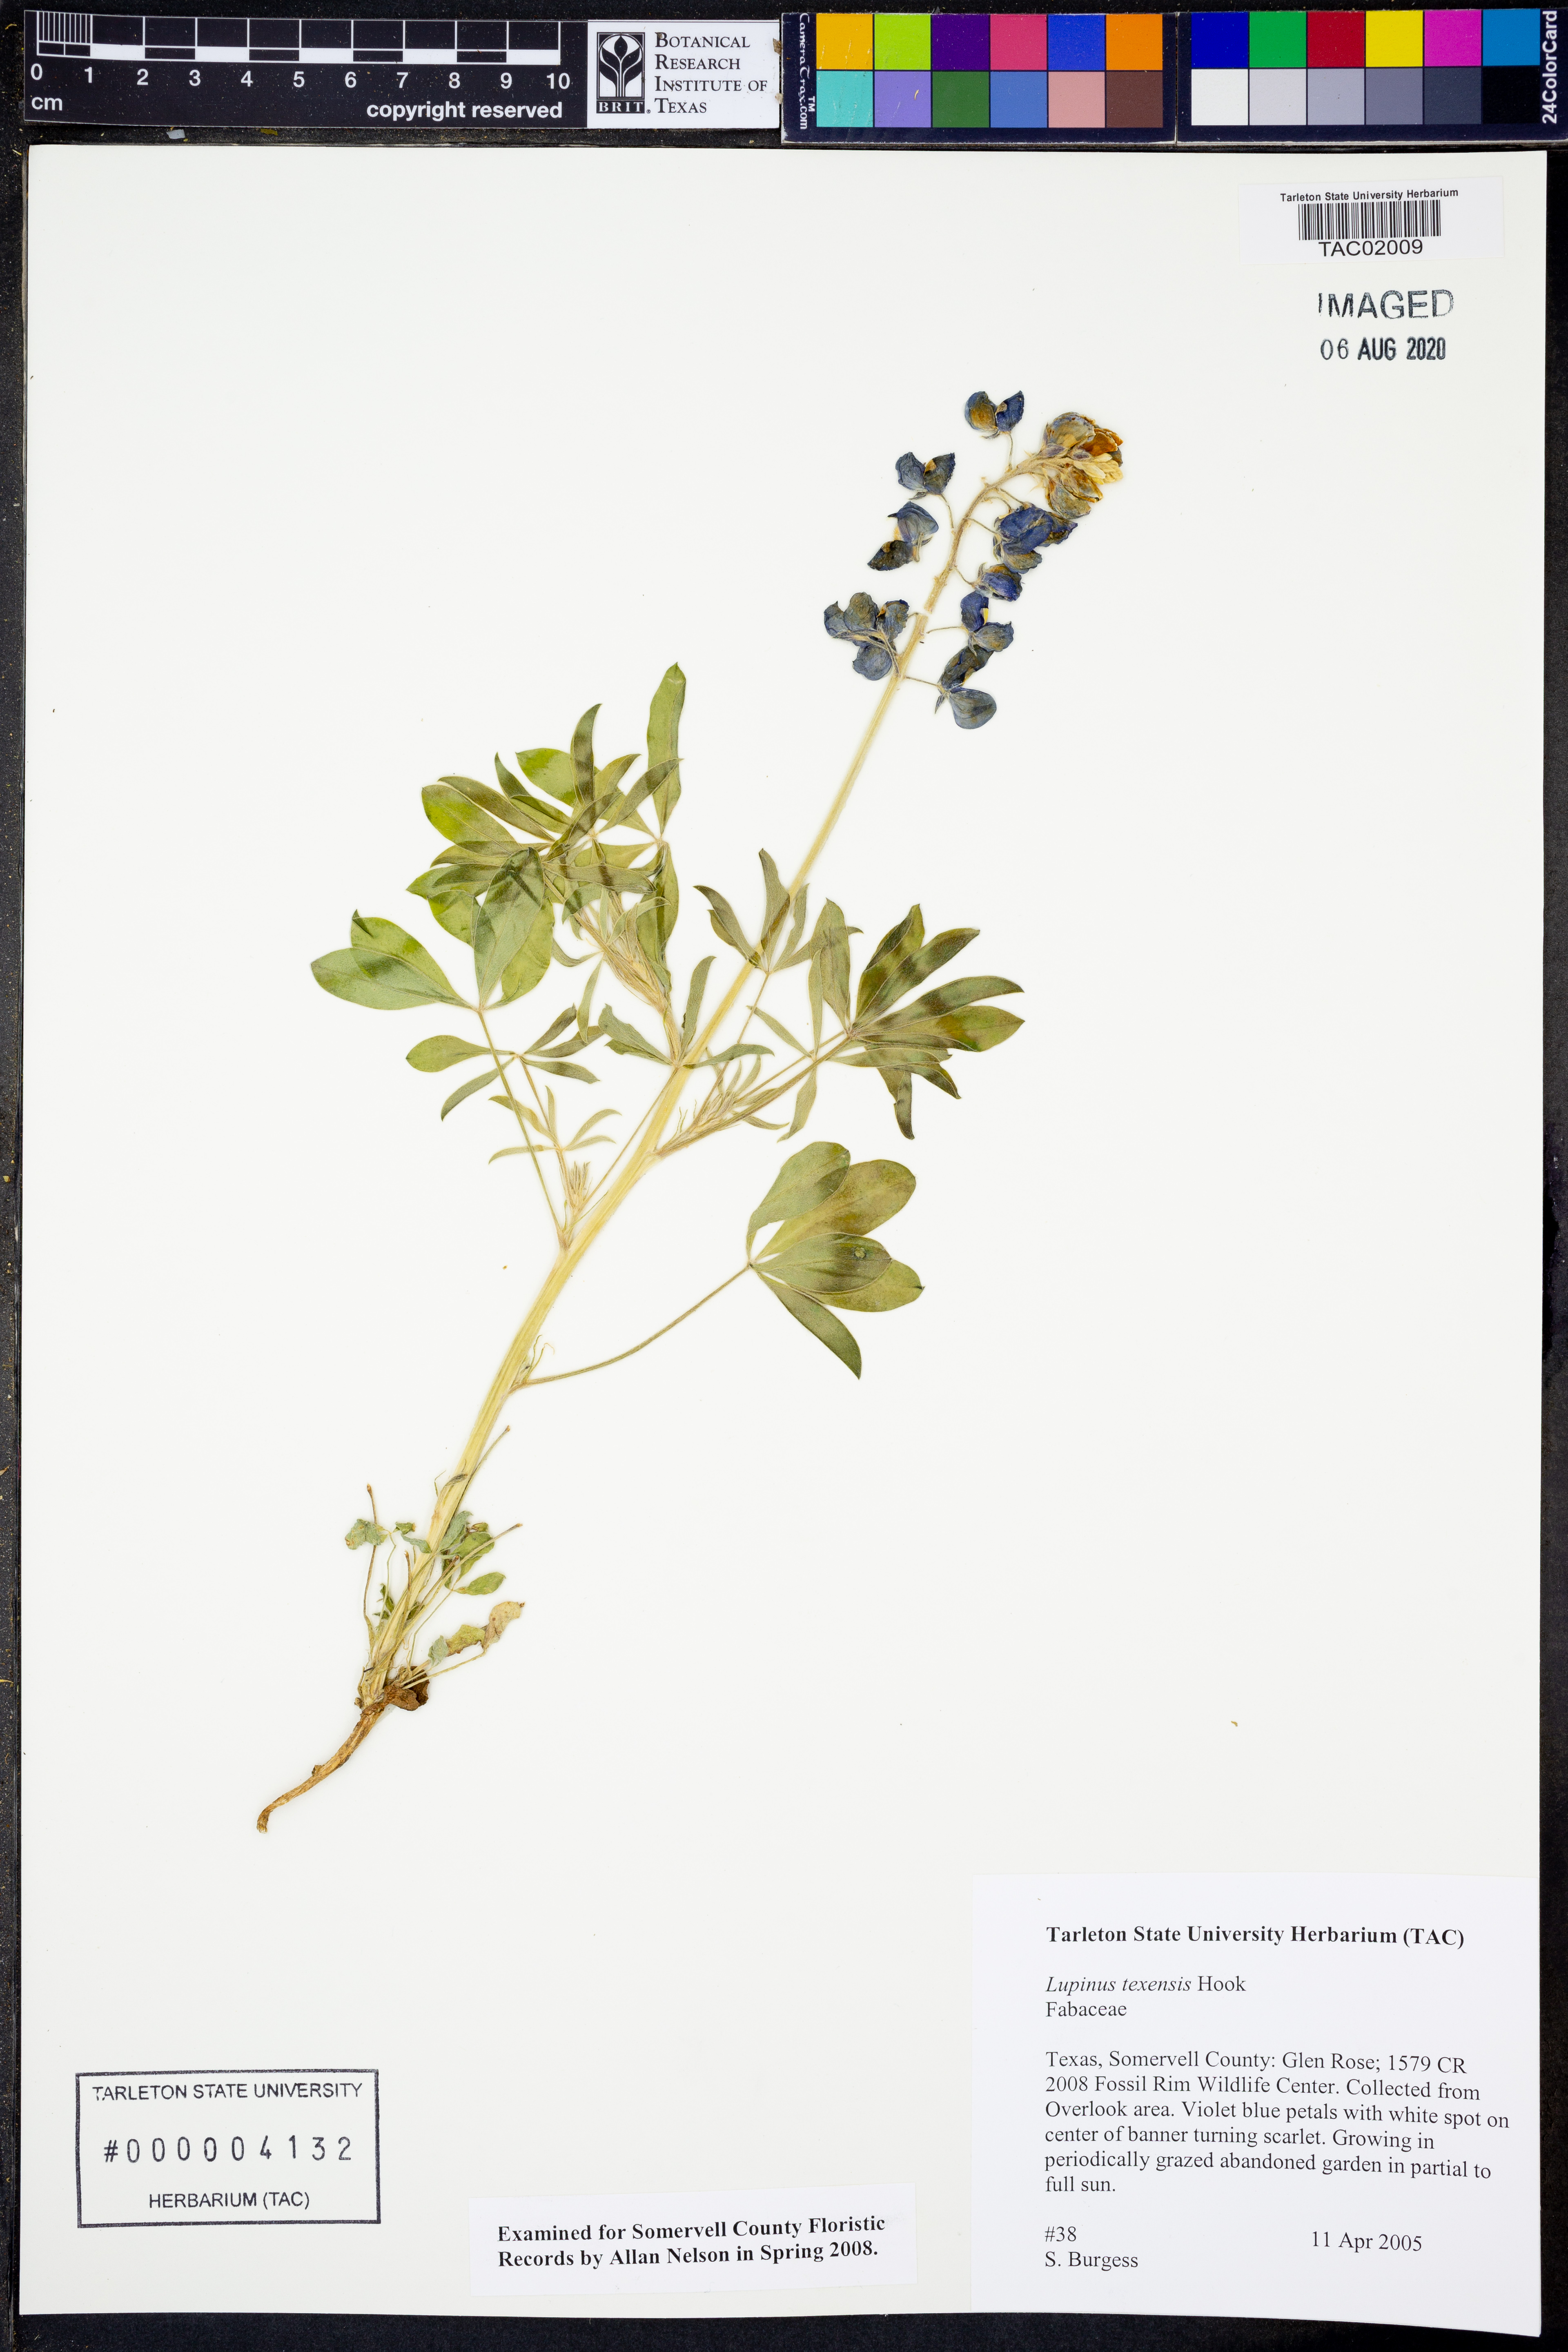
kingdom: Plantae
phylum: Tracheophyta
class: Magnoliopsida
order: Fabales
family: Fabaceae
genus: Lupinus
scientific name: Lupinus texensis
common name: Texas bluebonnet
